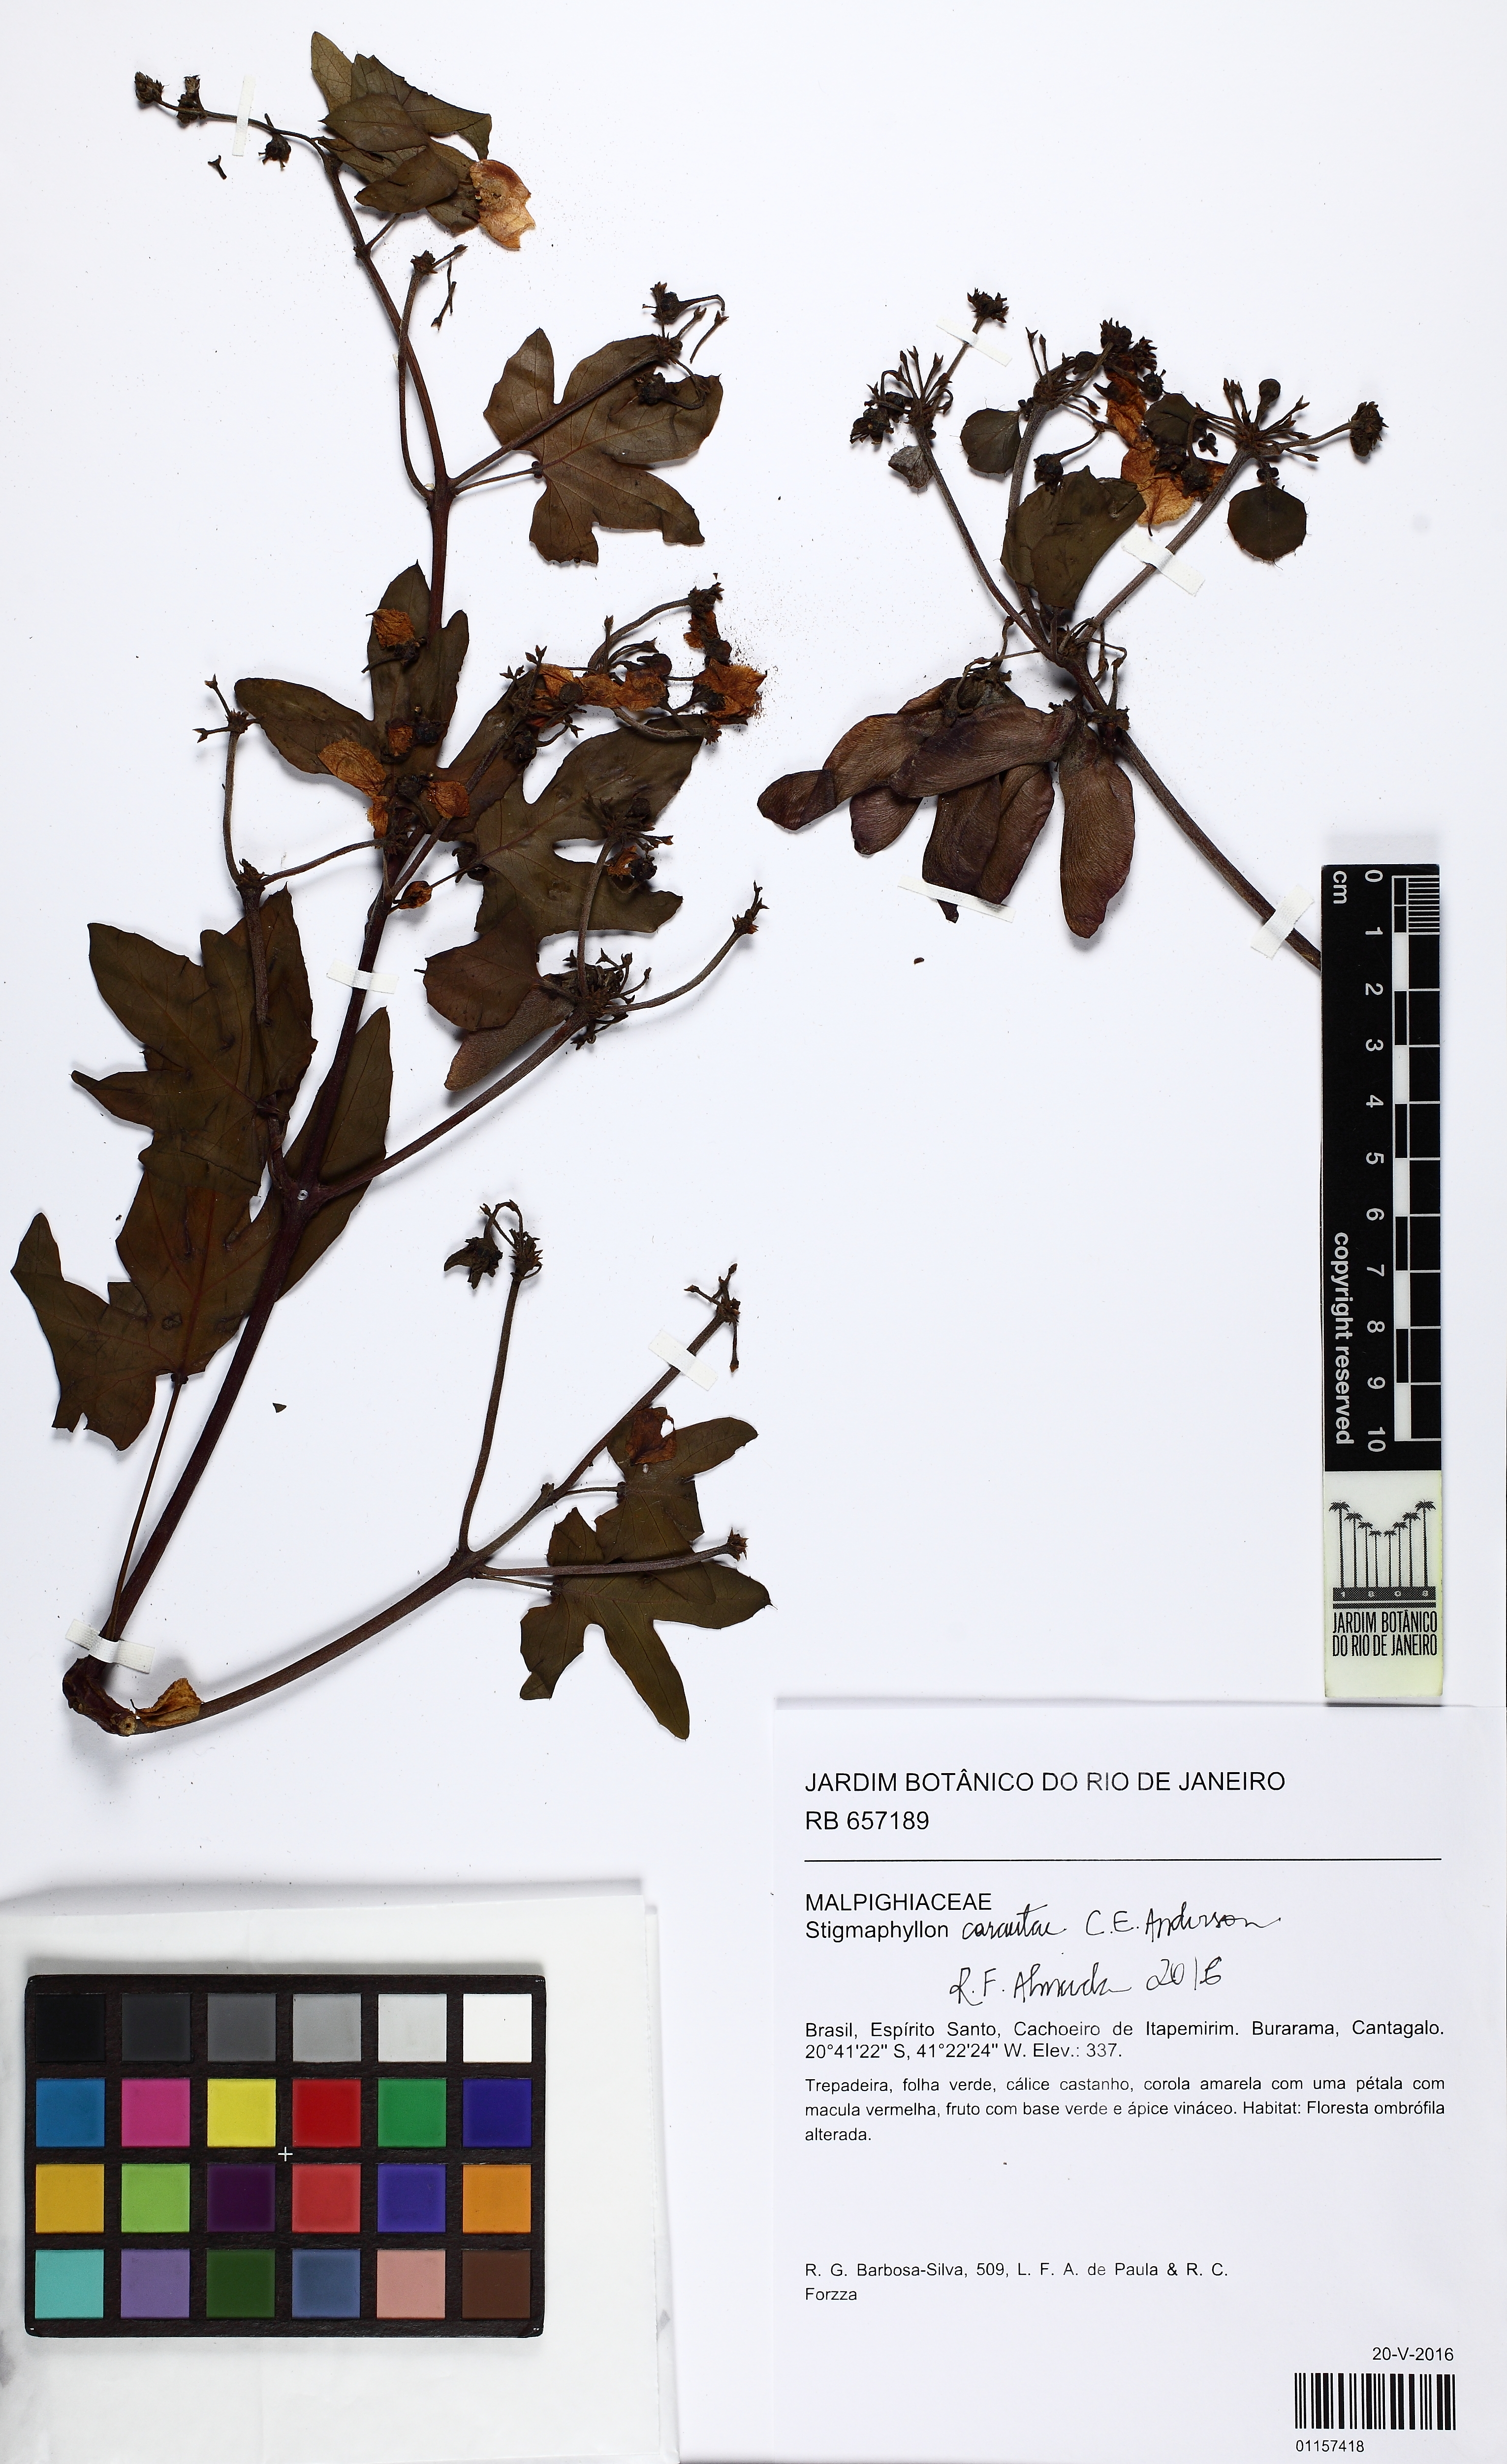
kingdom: Plantae
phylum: Tracheophyta
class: Magnoliopsida
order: Malpighiales
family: Malpighiaceae
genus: Stigmaphyllon
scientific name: Stigmaphyllon carautae
